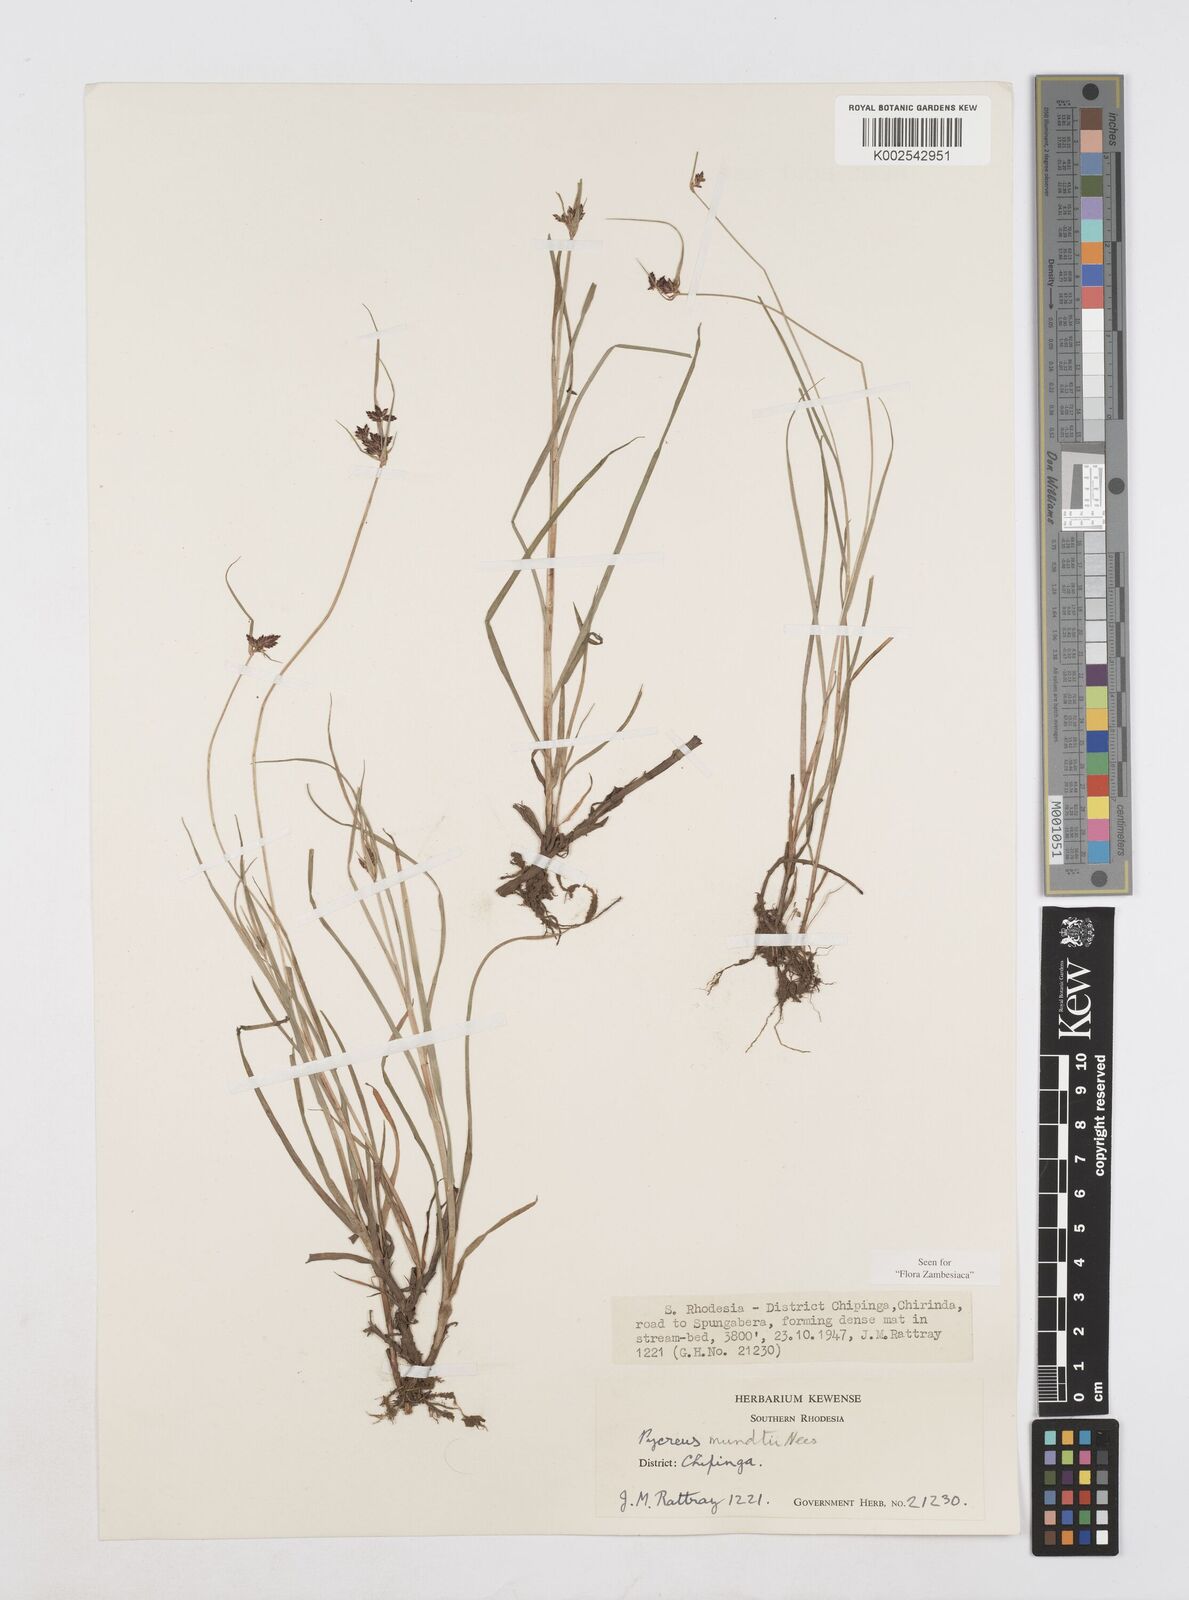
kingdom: Plantae
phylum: Tracheophyta
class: Liliopsida
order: Poales
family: Cyperaceae
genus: Cyperus
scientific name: Cyperus mundii
